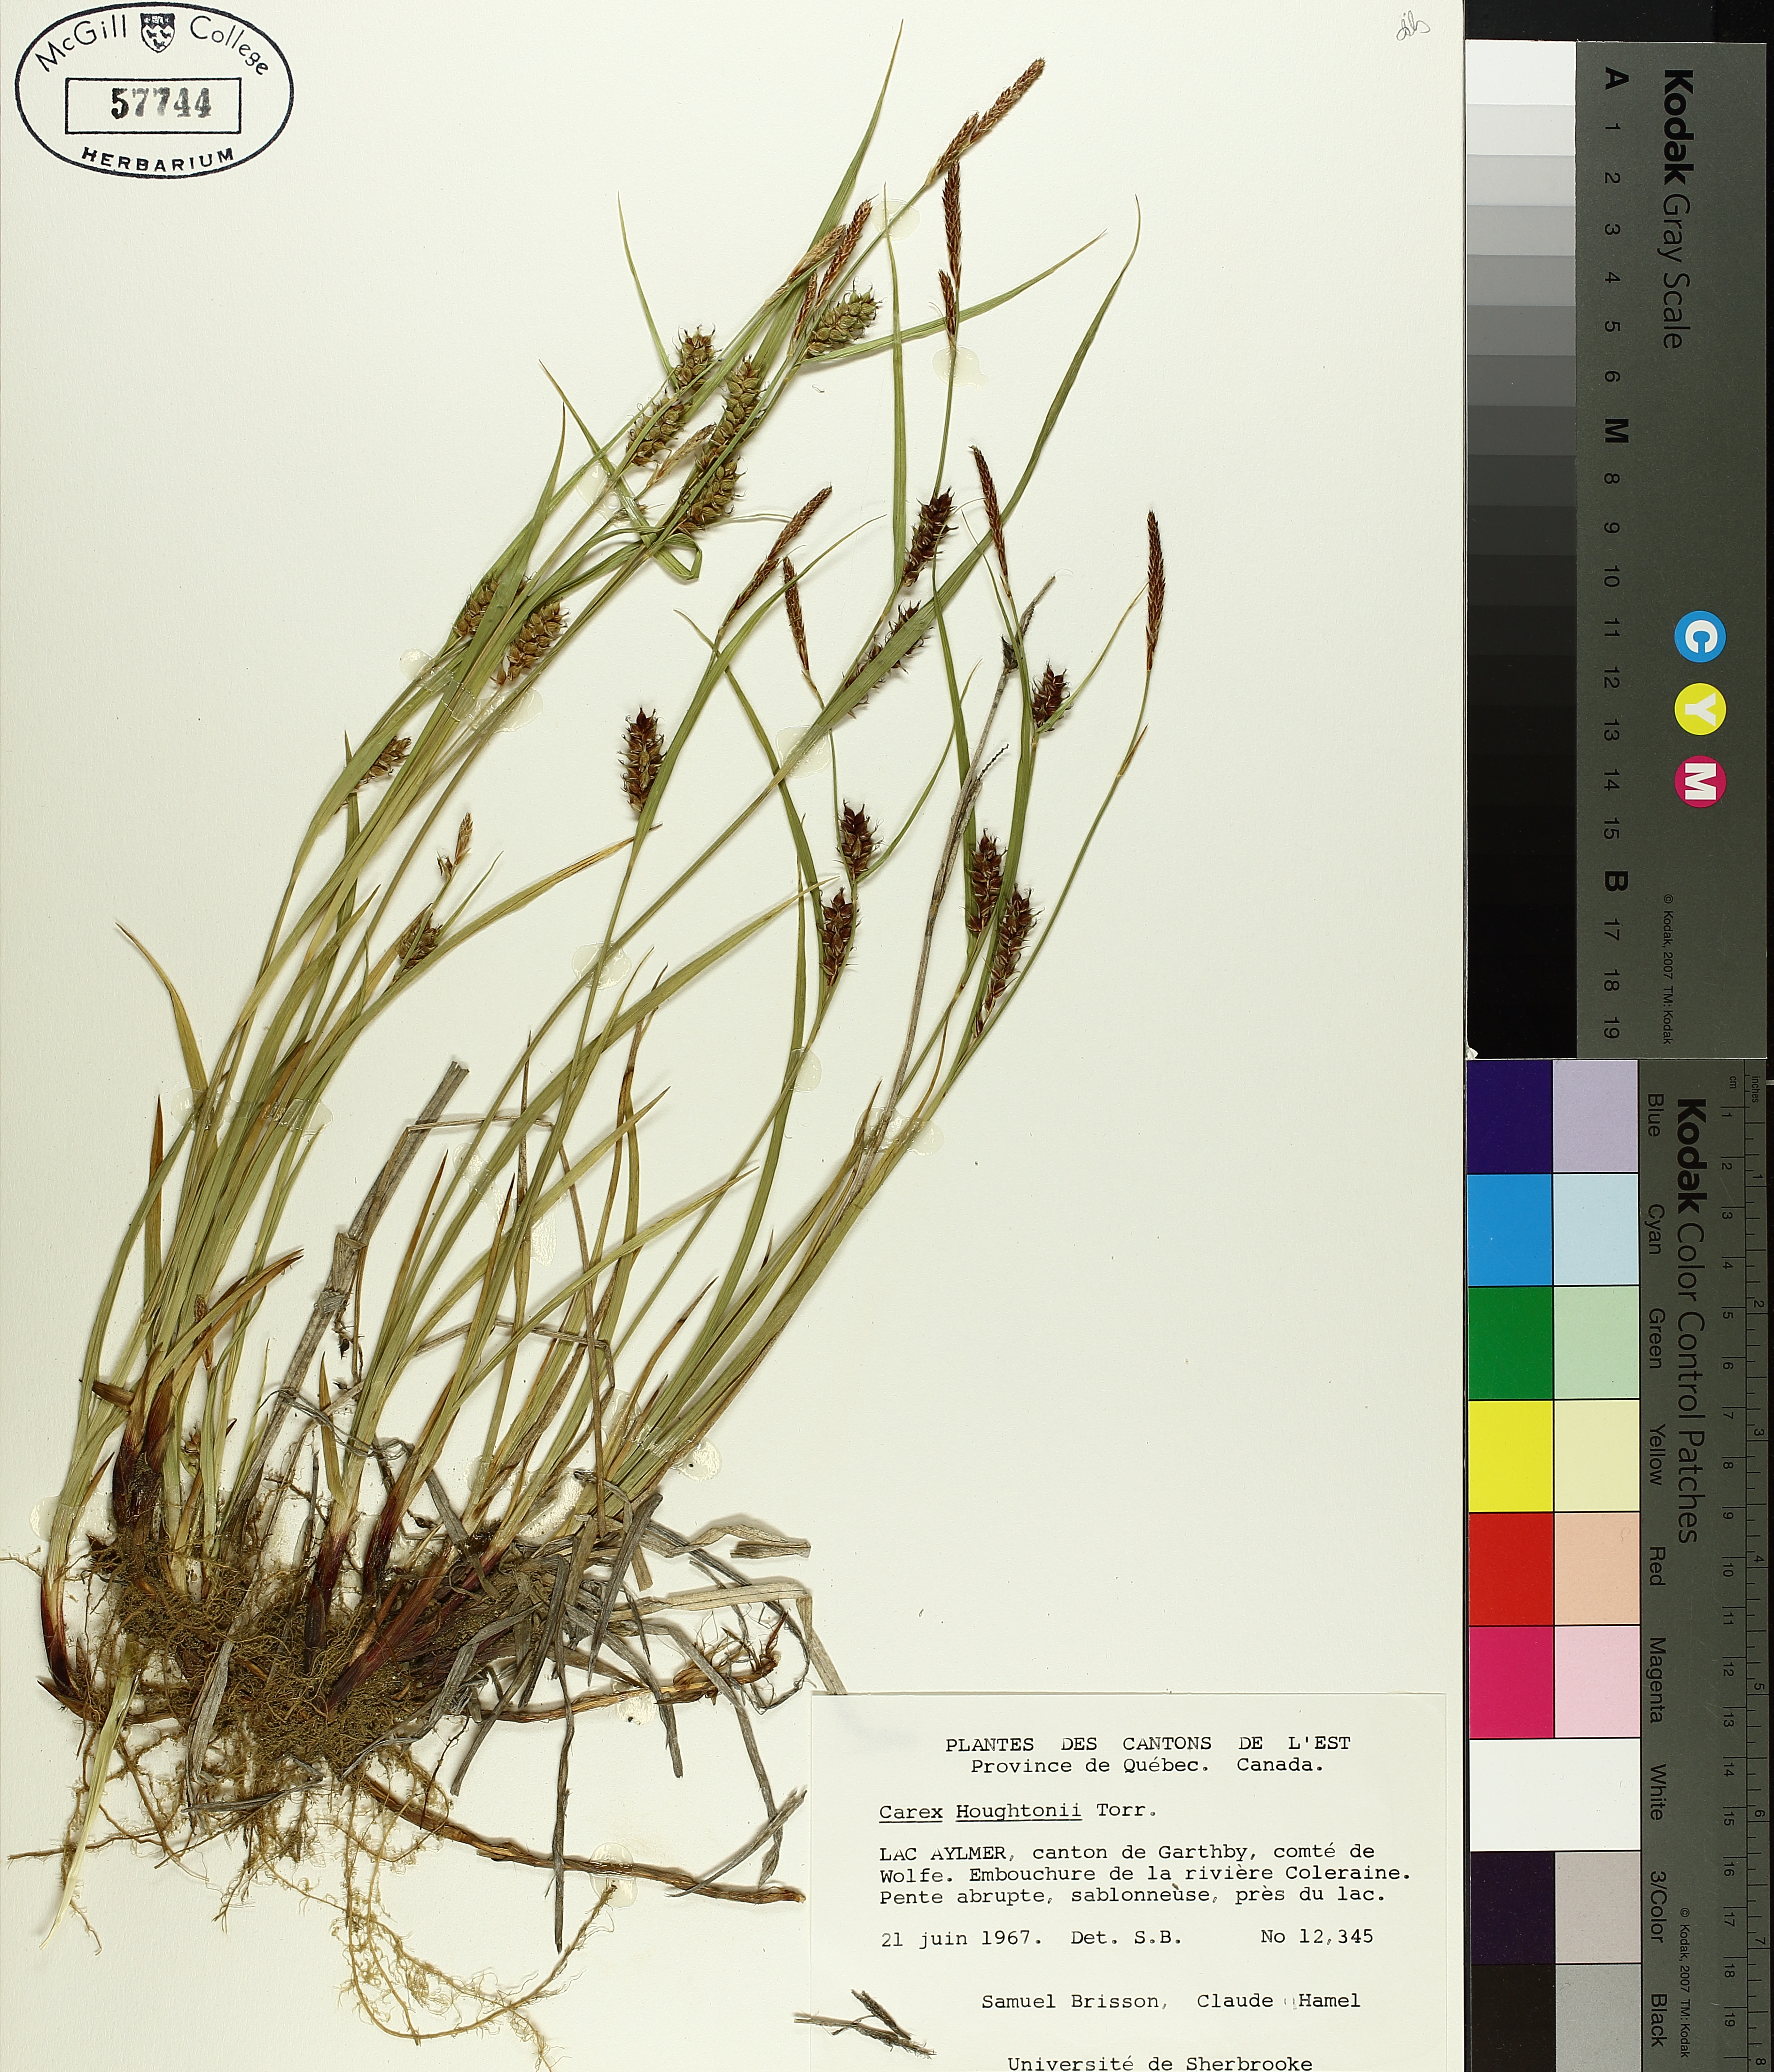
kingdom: Plantae
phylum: Tracheophyta
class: Liliopsida
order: Poales
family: Cyperaceae
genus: Carex
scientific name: Carex houghtoniana
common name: Houghton's sedge
